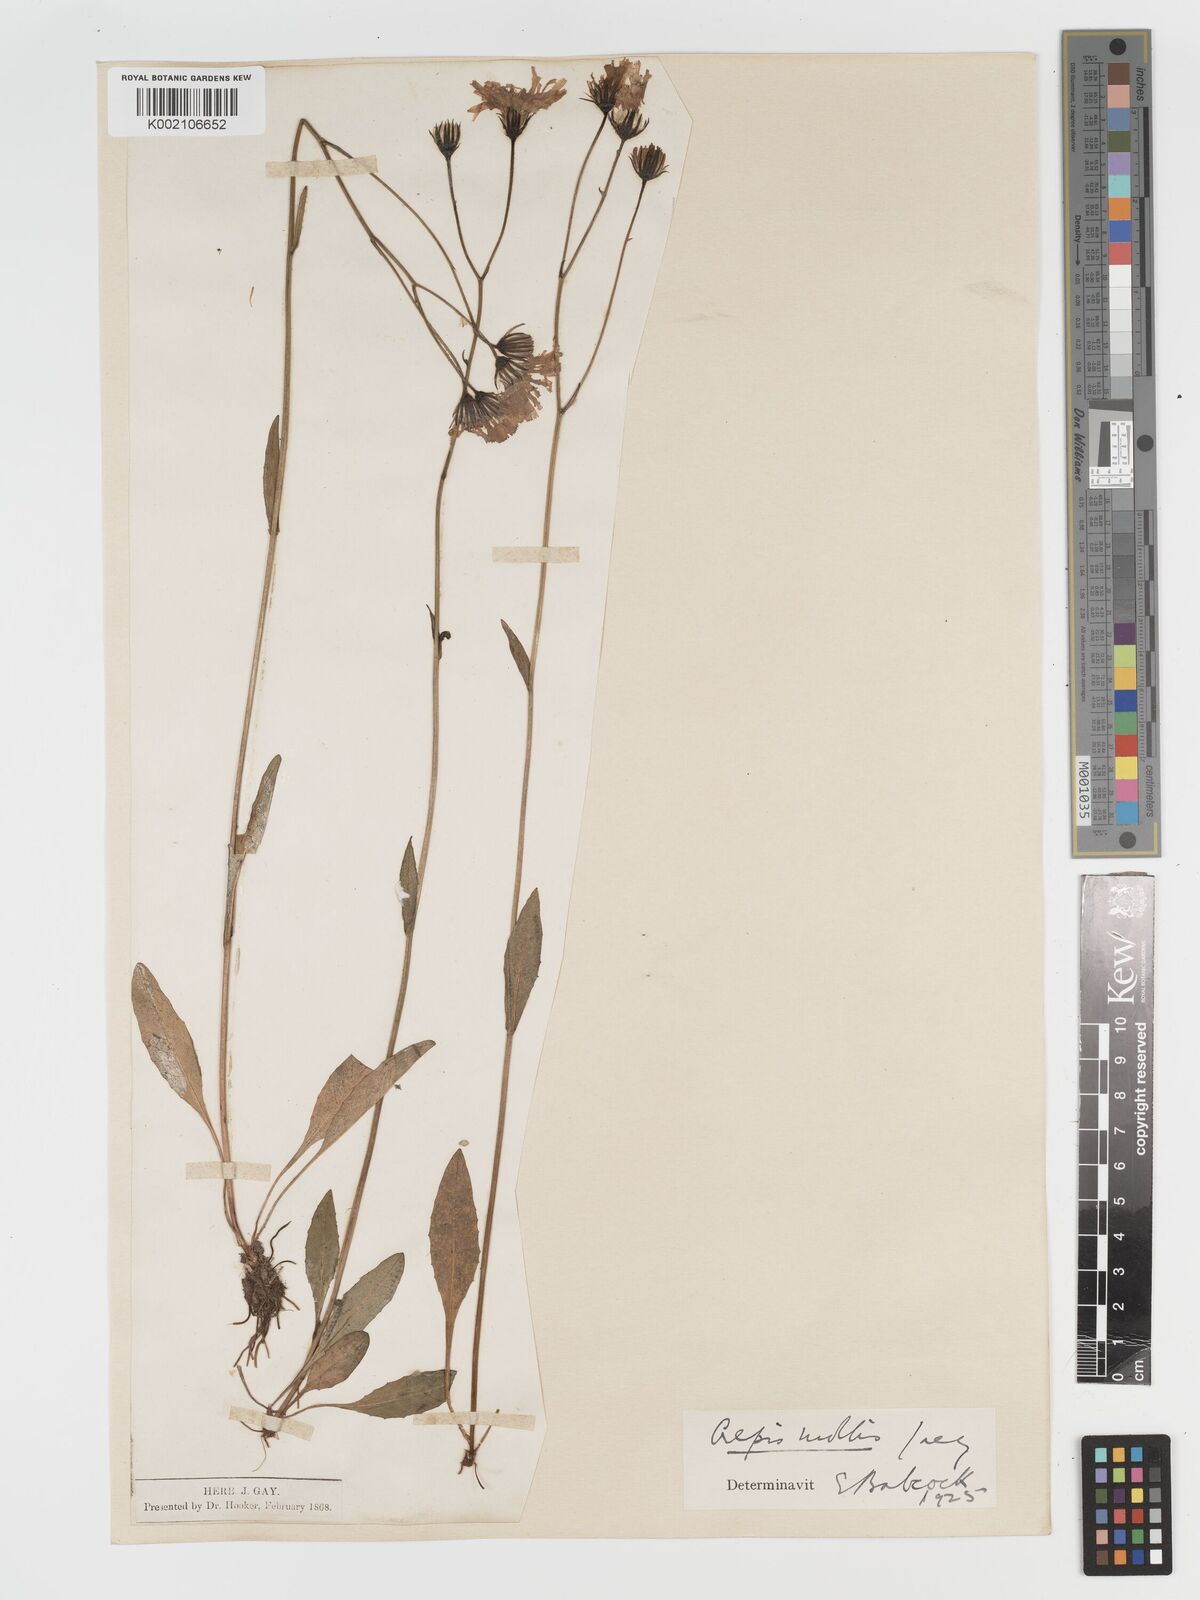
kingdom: Plantae
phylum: Tracheophyta
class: Magnoliopsida
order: Asterales
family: Asteraceae
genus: Crepis
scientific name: Crepis mollis
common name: Northern hawk's-beard
